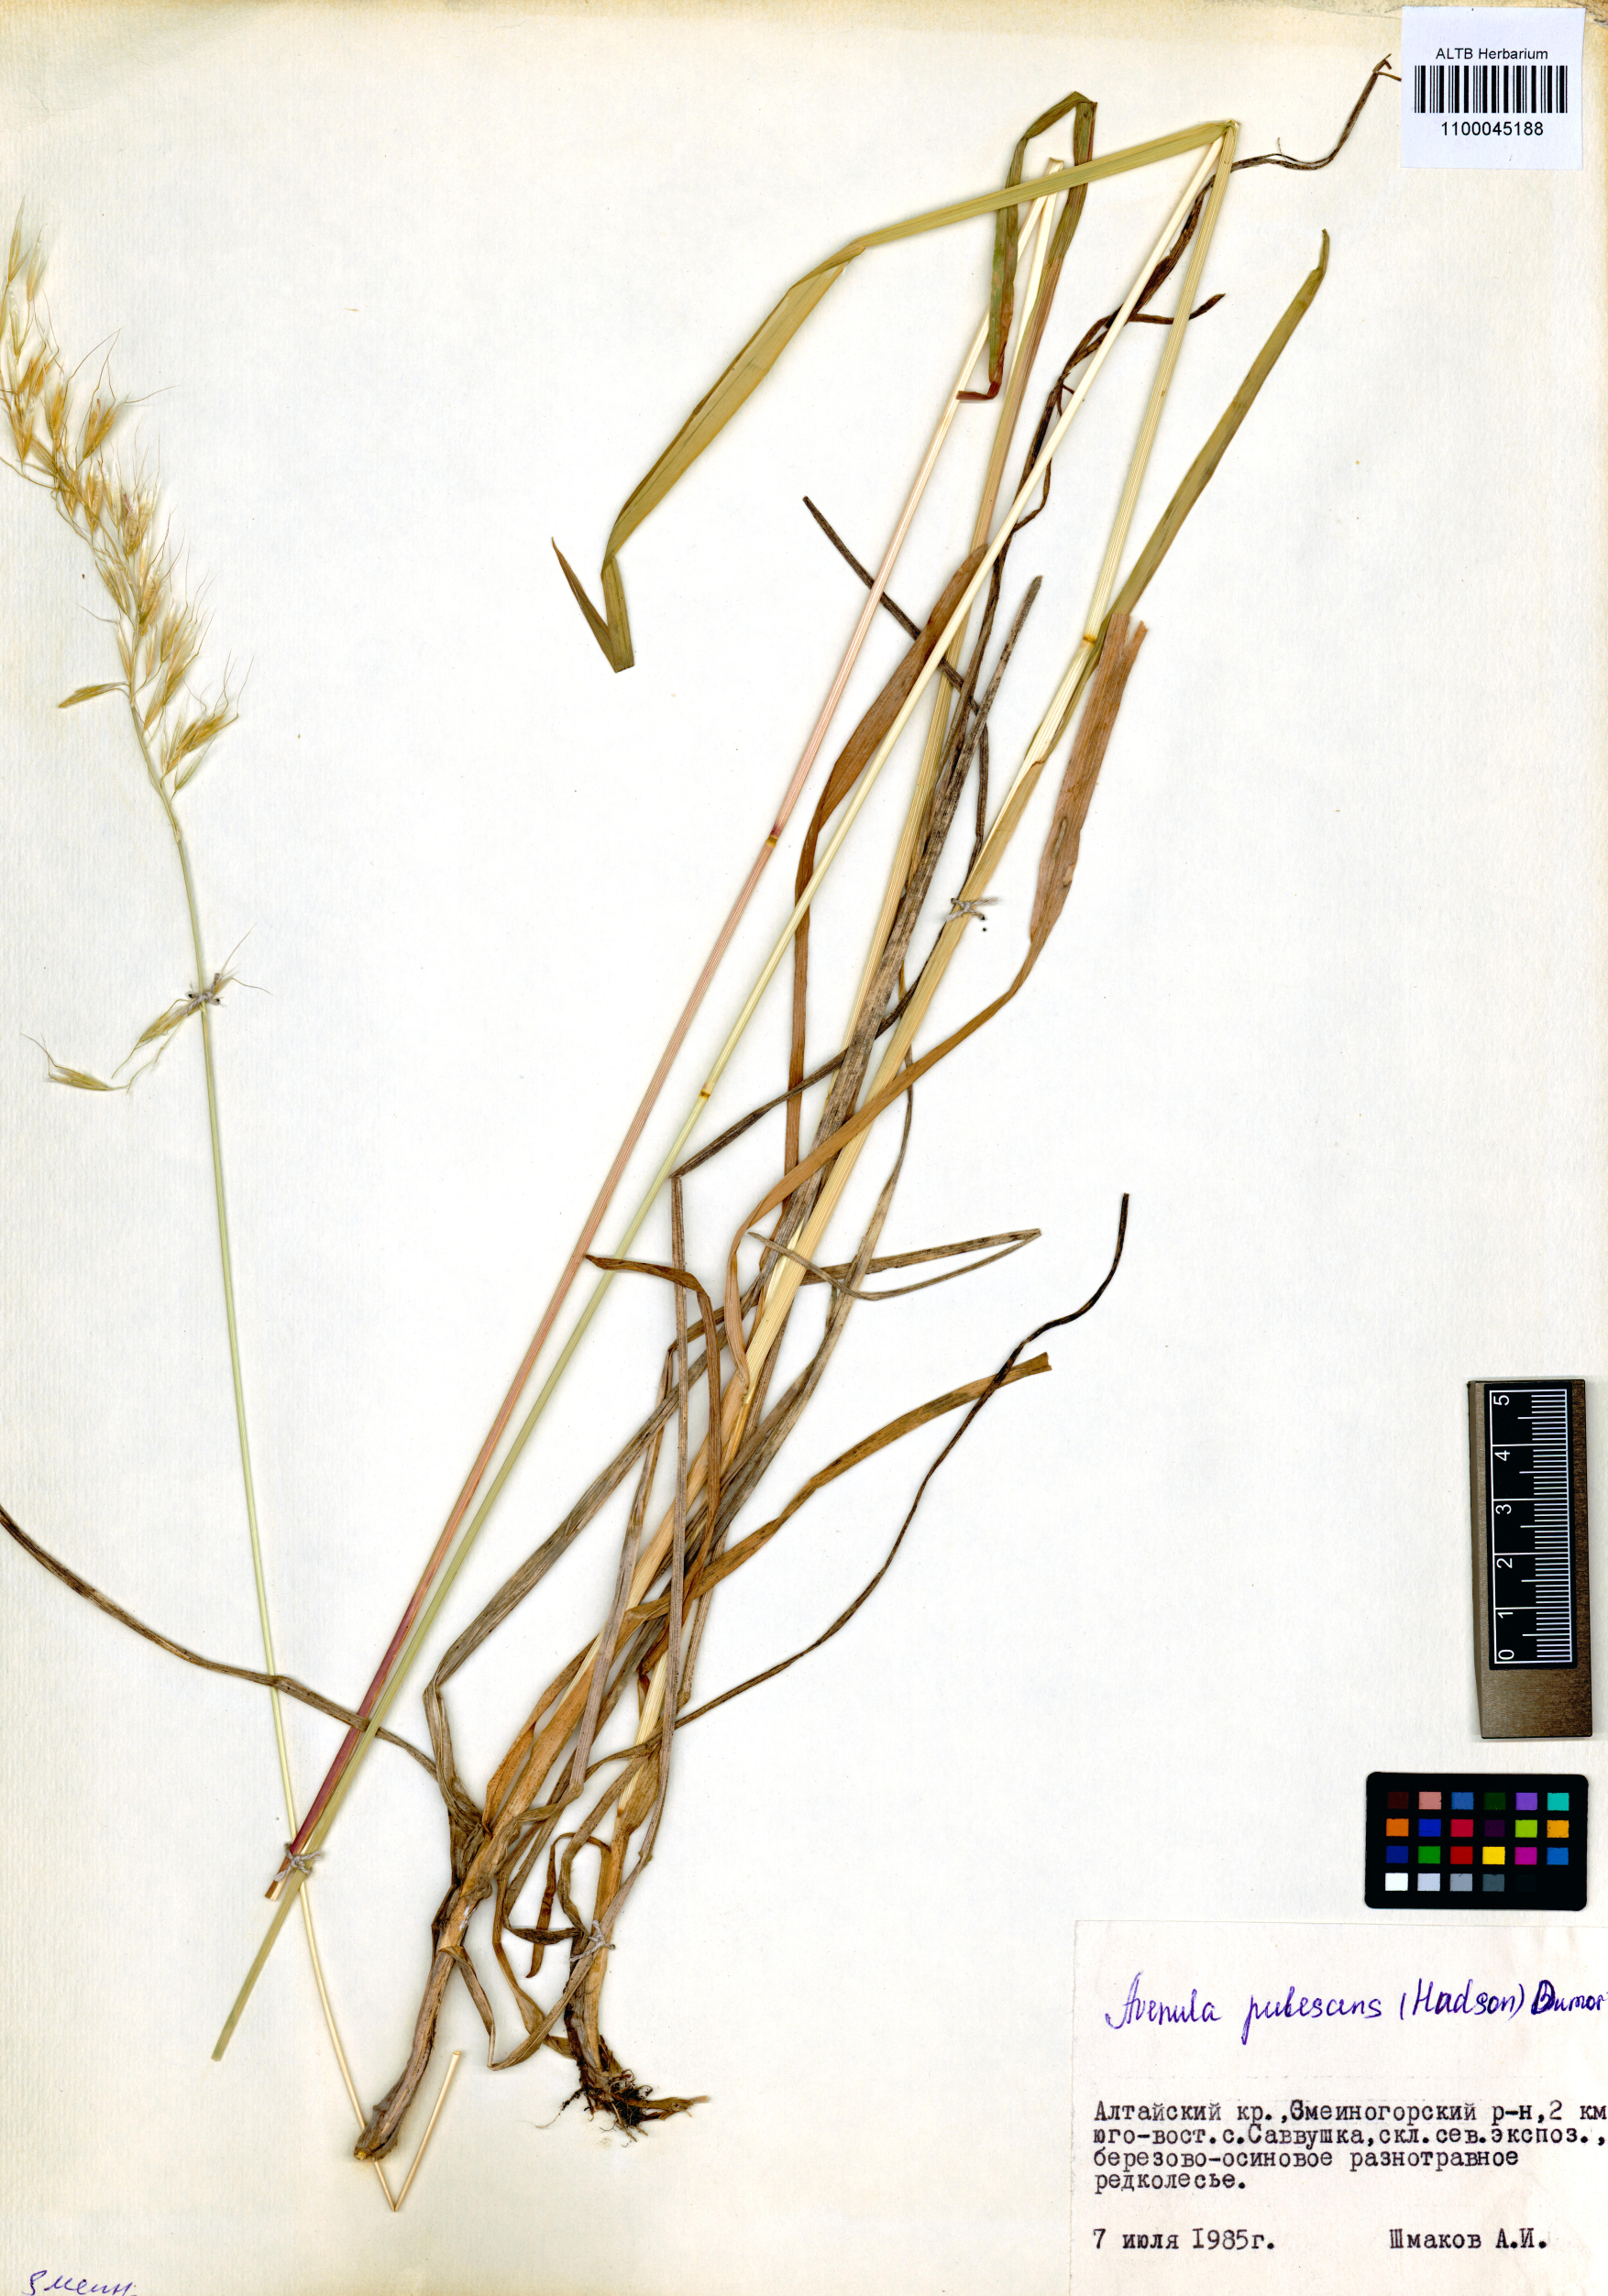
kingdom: Plantae
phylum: Tracheophyta
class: Liliopsida
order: Poales
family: Poaceae
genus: Avenula
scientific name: Avenula pubescens
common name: Downy alpine oatgrass
